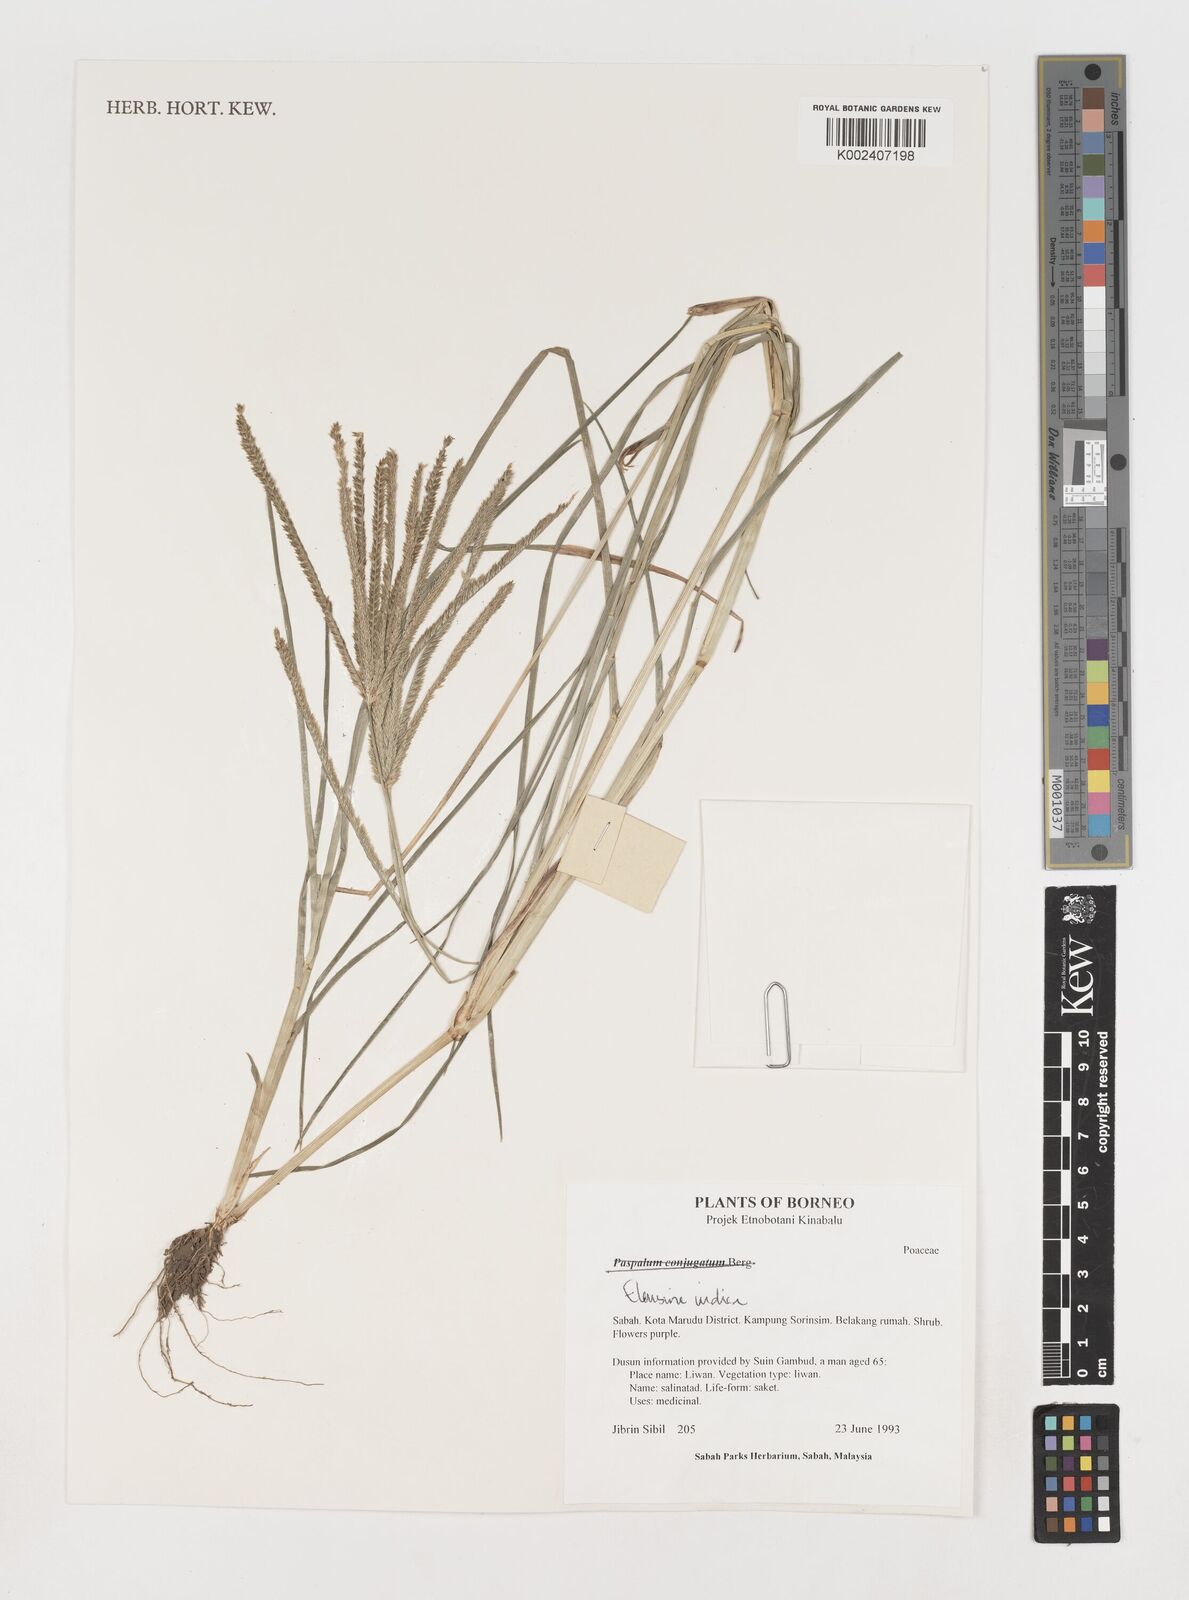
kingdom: Plantae
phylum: Tracheophyta
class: Liliopsida
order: Poales
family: Poaceae
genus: Eleusine
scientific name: Eleusine indica
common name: Yard-grass
